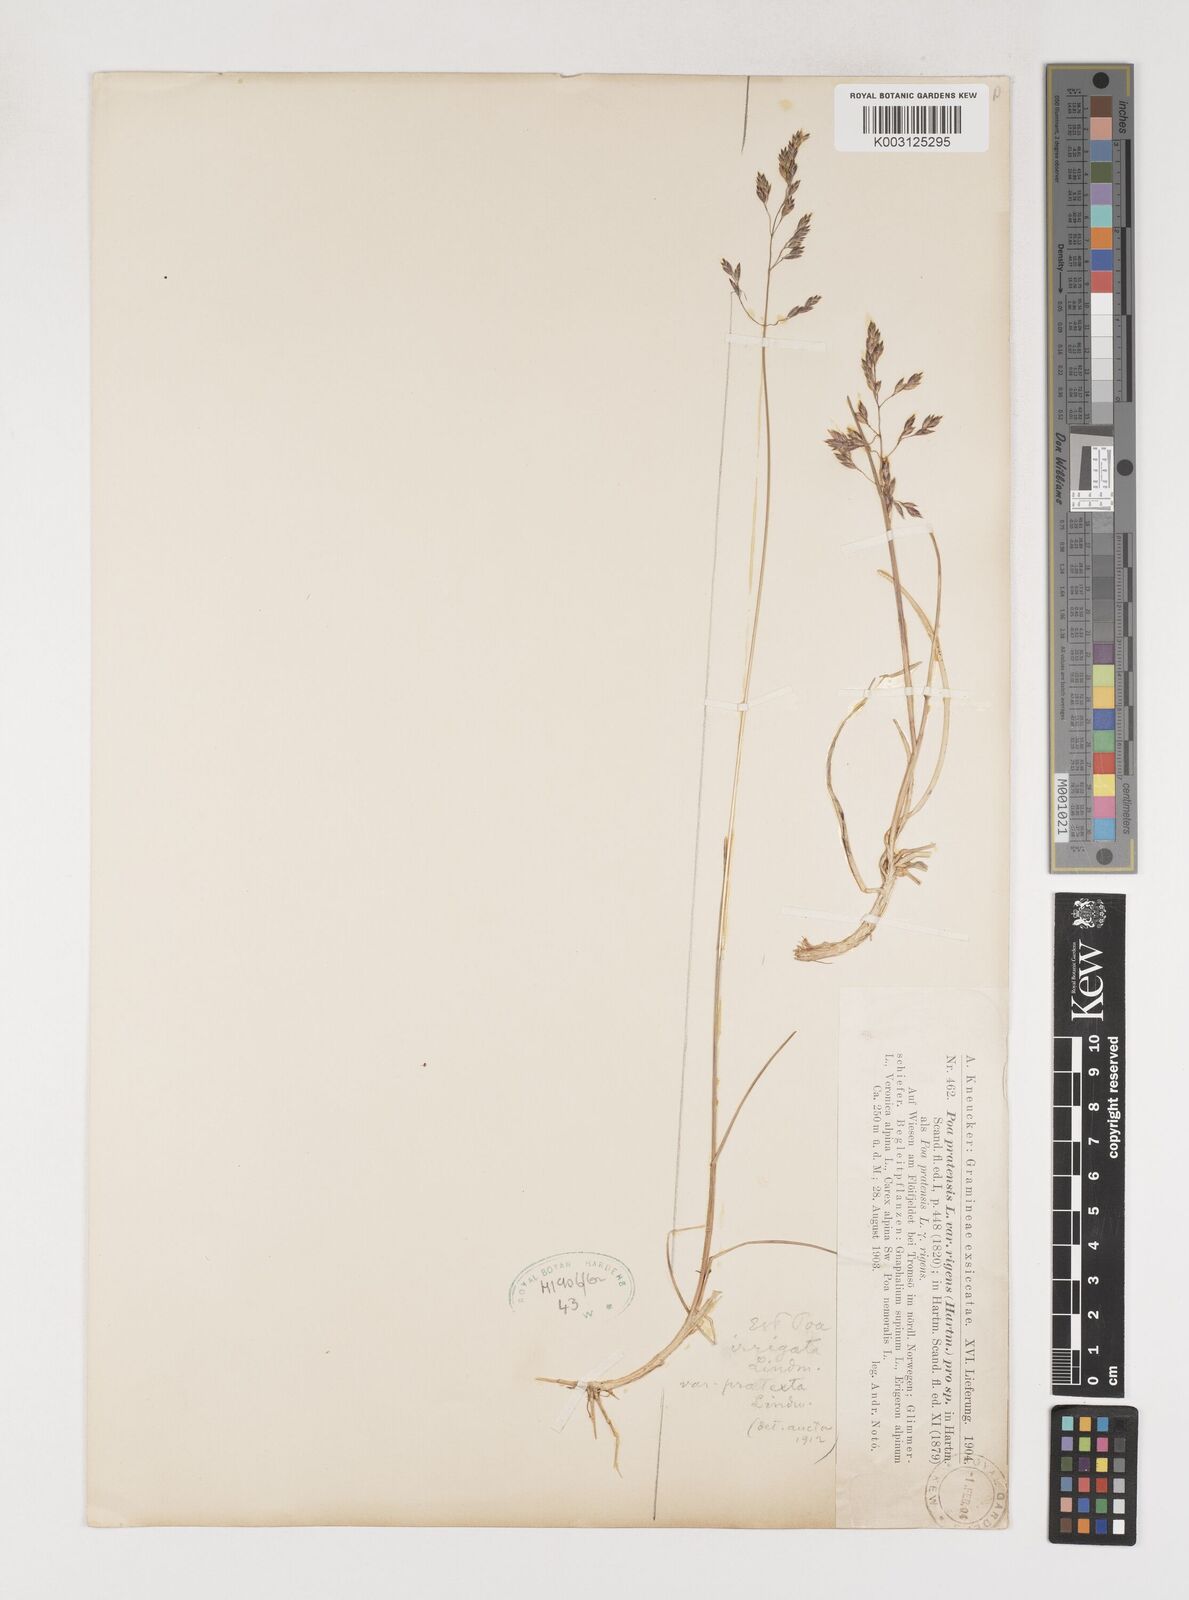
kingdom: Plantae
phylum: Tracheophyta
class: Liliopsida
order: Poales
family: Poaceae
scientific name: Poaceae
